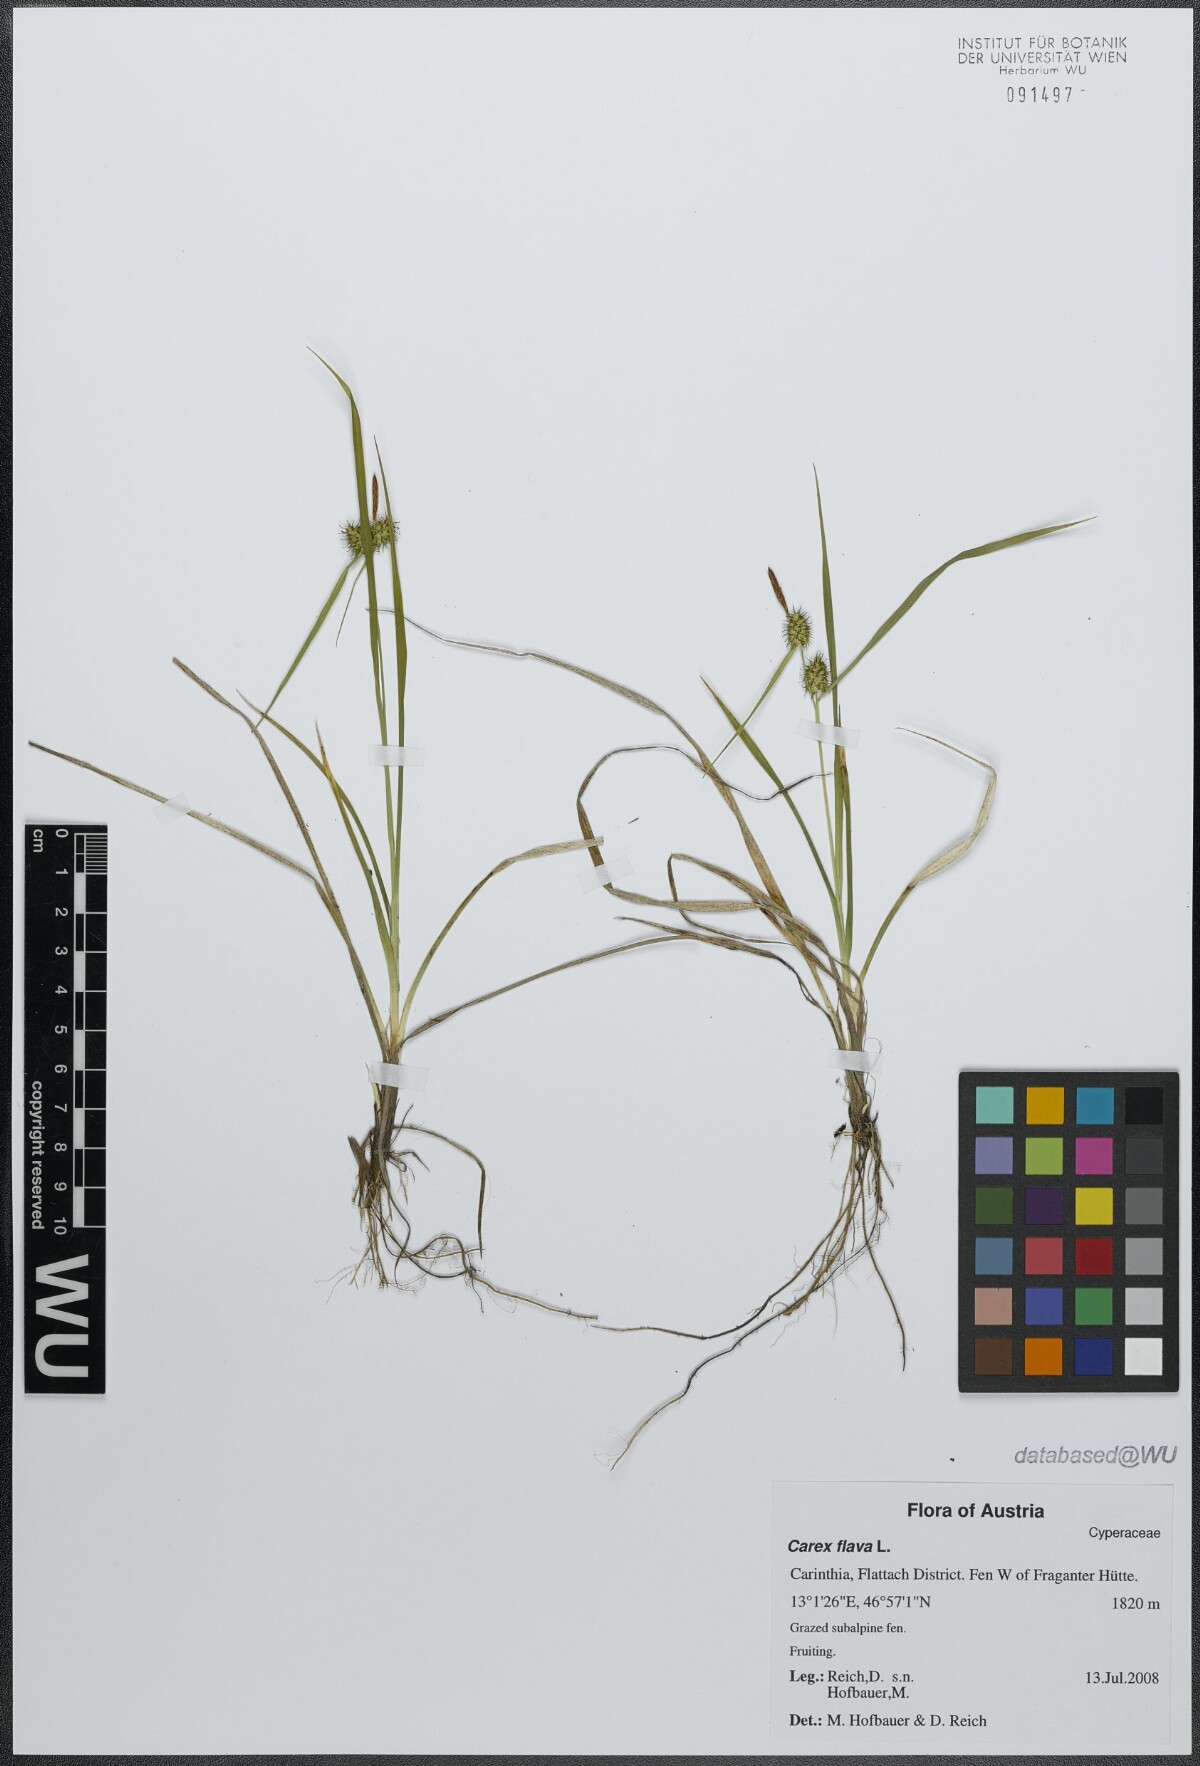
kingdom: Plantae
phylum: Tracheophyta
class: Liliopsida
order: Poales
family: Cyperaceae
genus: Carex
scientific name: Carex flava
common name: Large yellow-sedge
